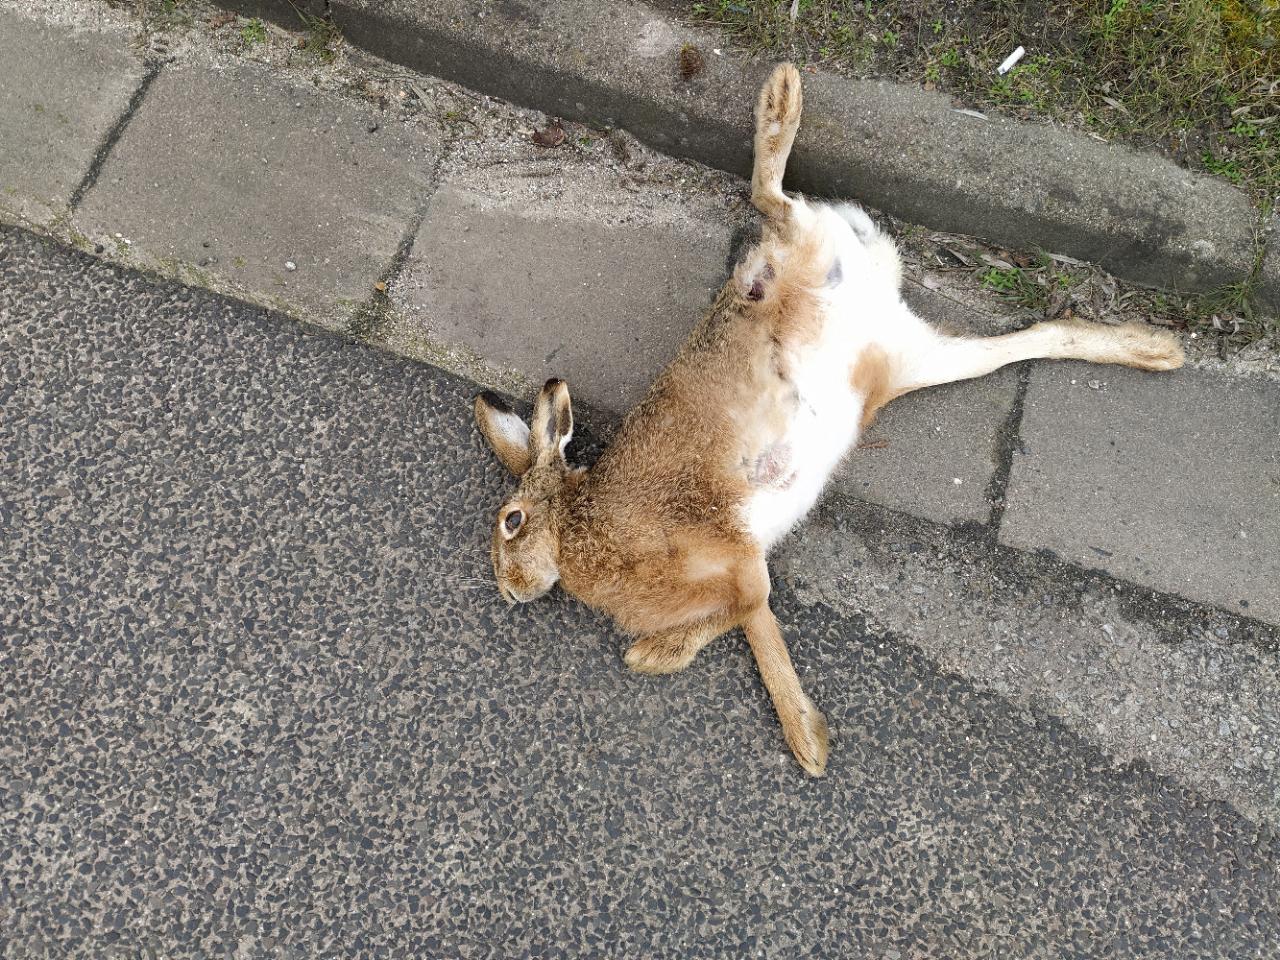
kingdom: Animalia
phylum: Chordata
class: Mammalia
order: Lagomorpha
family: Leporidae
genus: Lepus
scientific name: Lepus europaeus
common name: European hare
